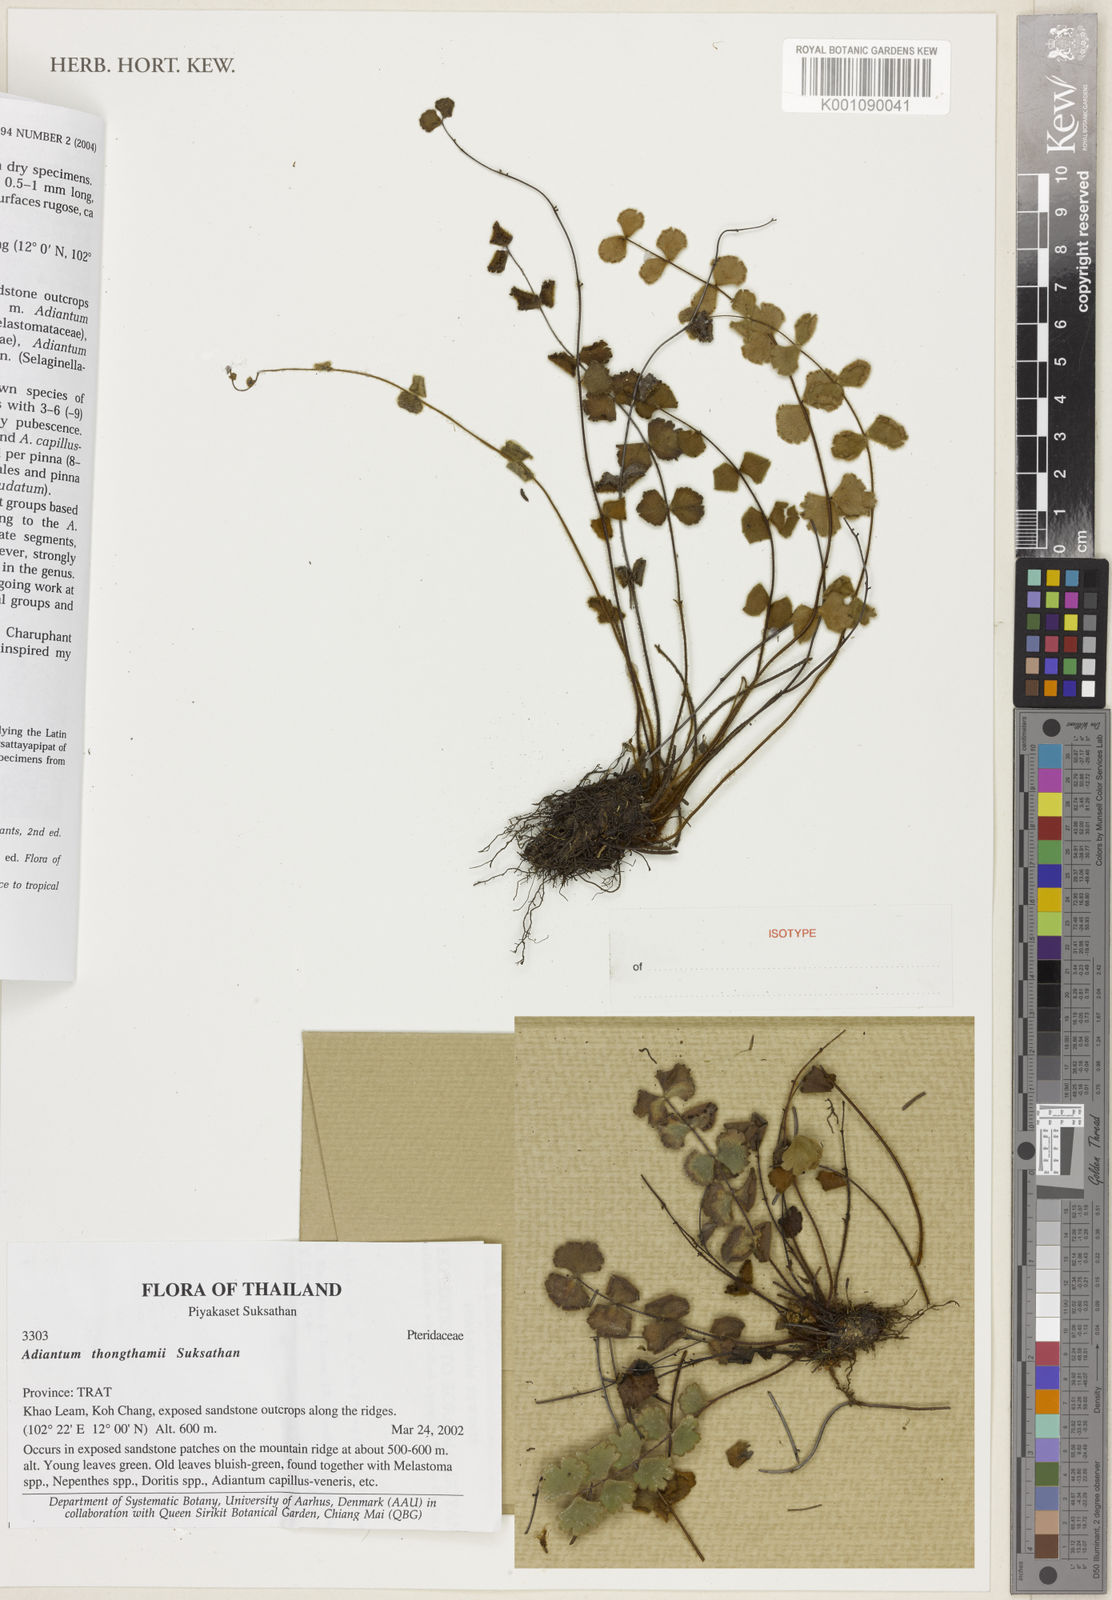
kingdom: Plantae
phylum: Tracheophyta
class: Polypodiopsida
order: Polypodiales
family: Pteridaceae
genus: Adiantum
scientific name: Adiantum thongthamii
